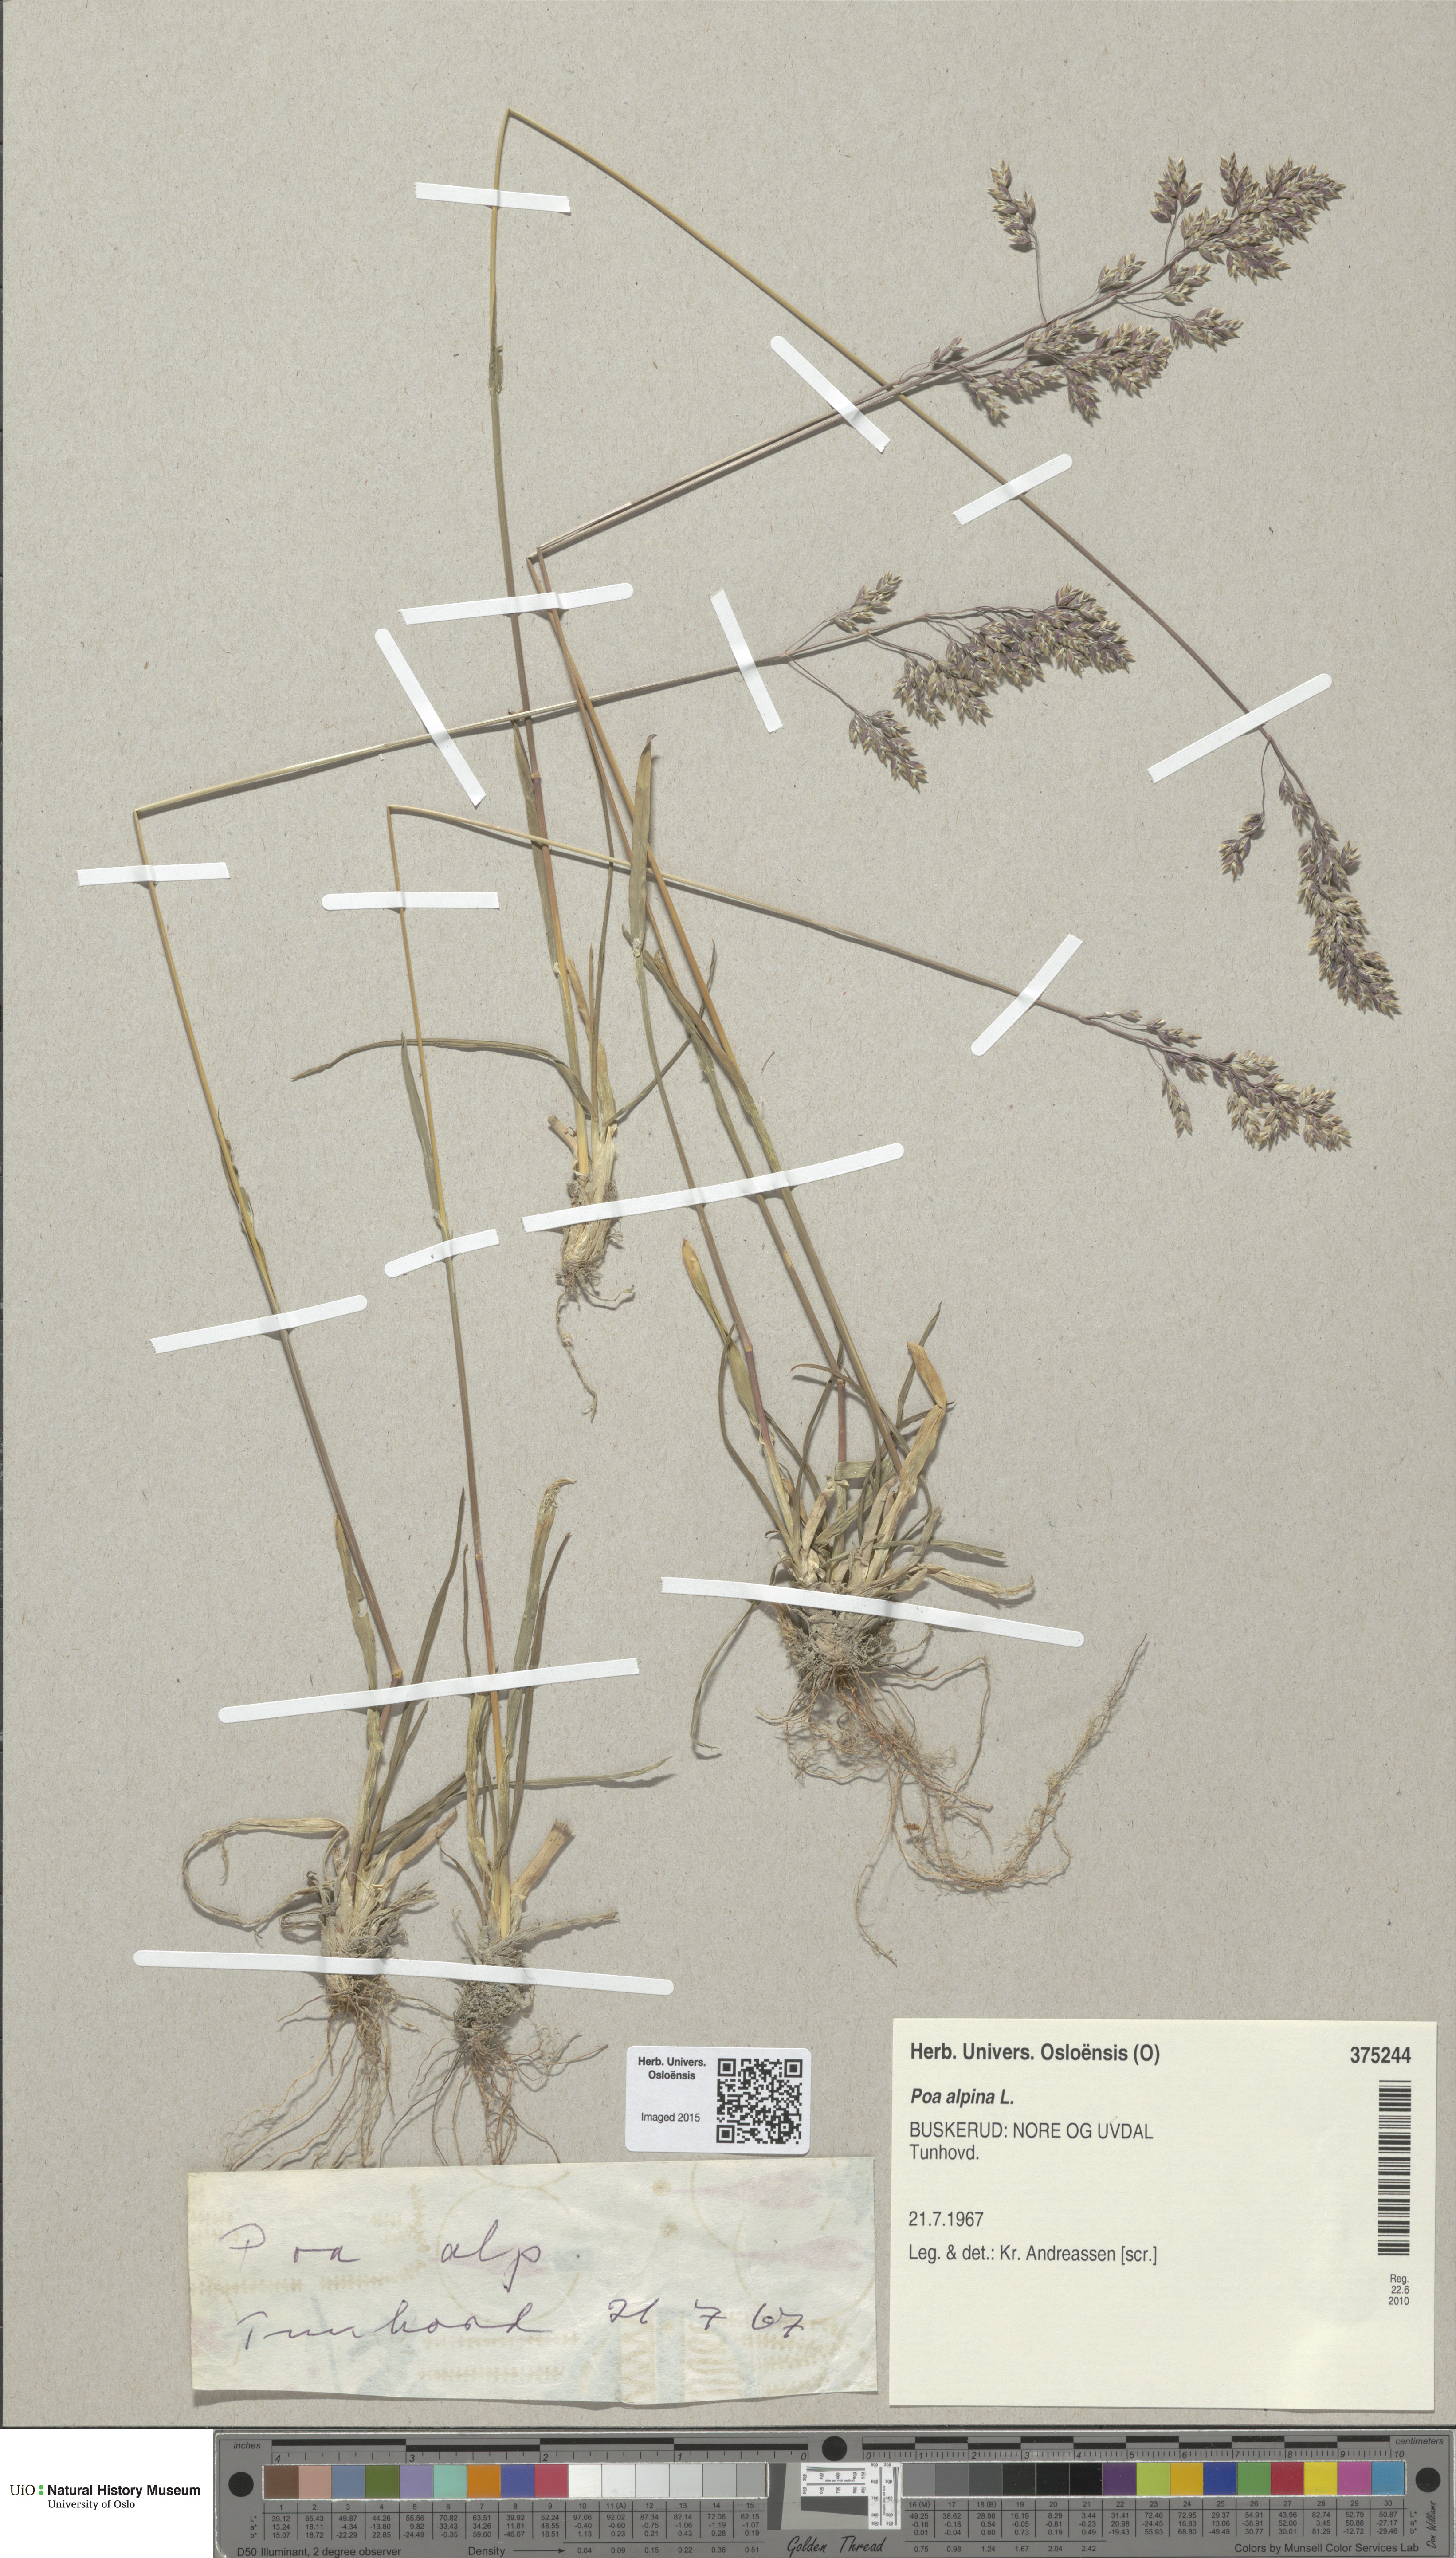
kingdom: Plantae
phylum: Tracheophyta
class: Liliopsida
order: Poales
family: Poaceae
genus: Poa
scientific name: Poa alpina
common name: Alpine bluegrass
